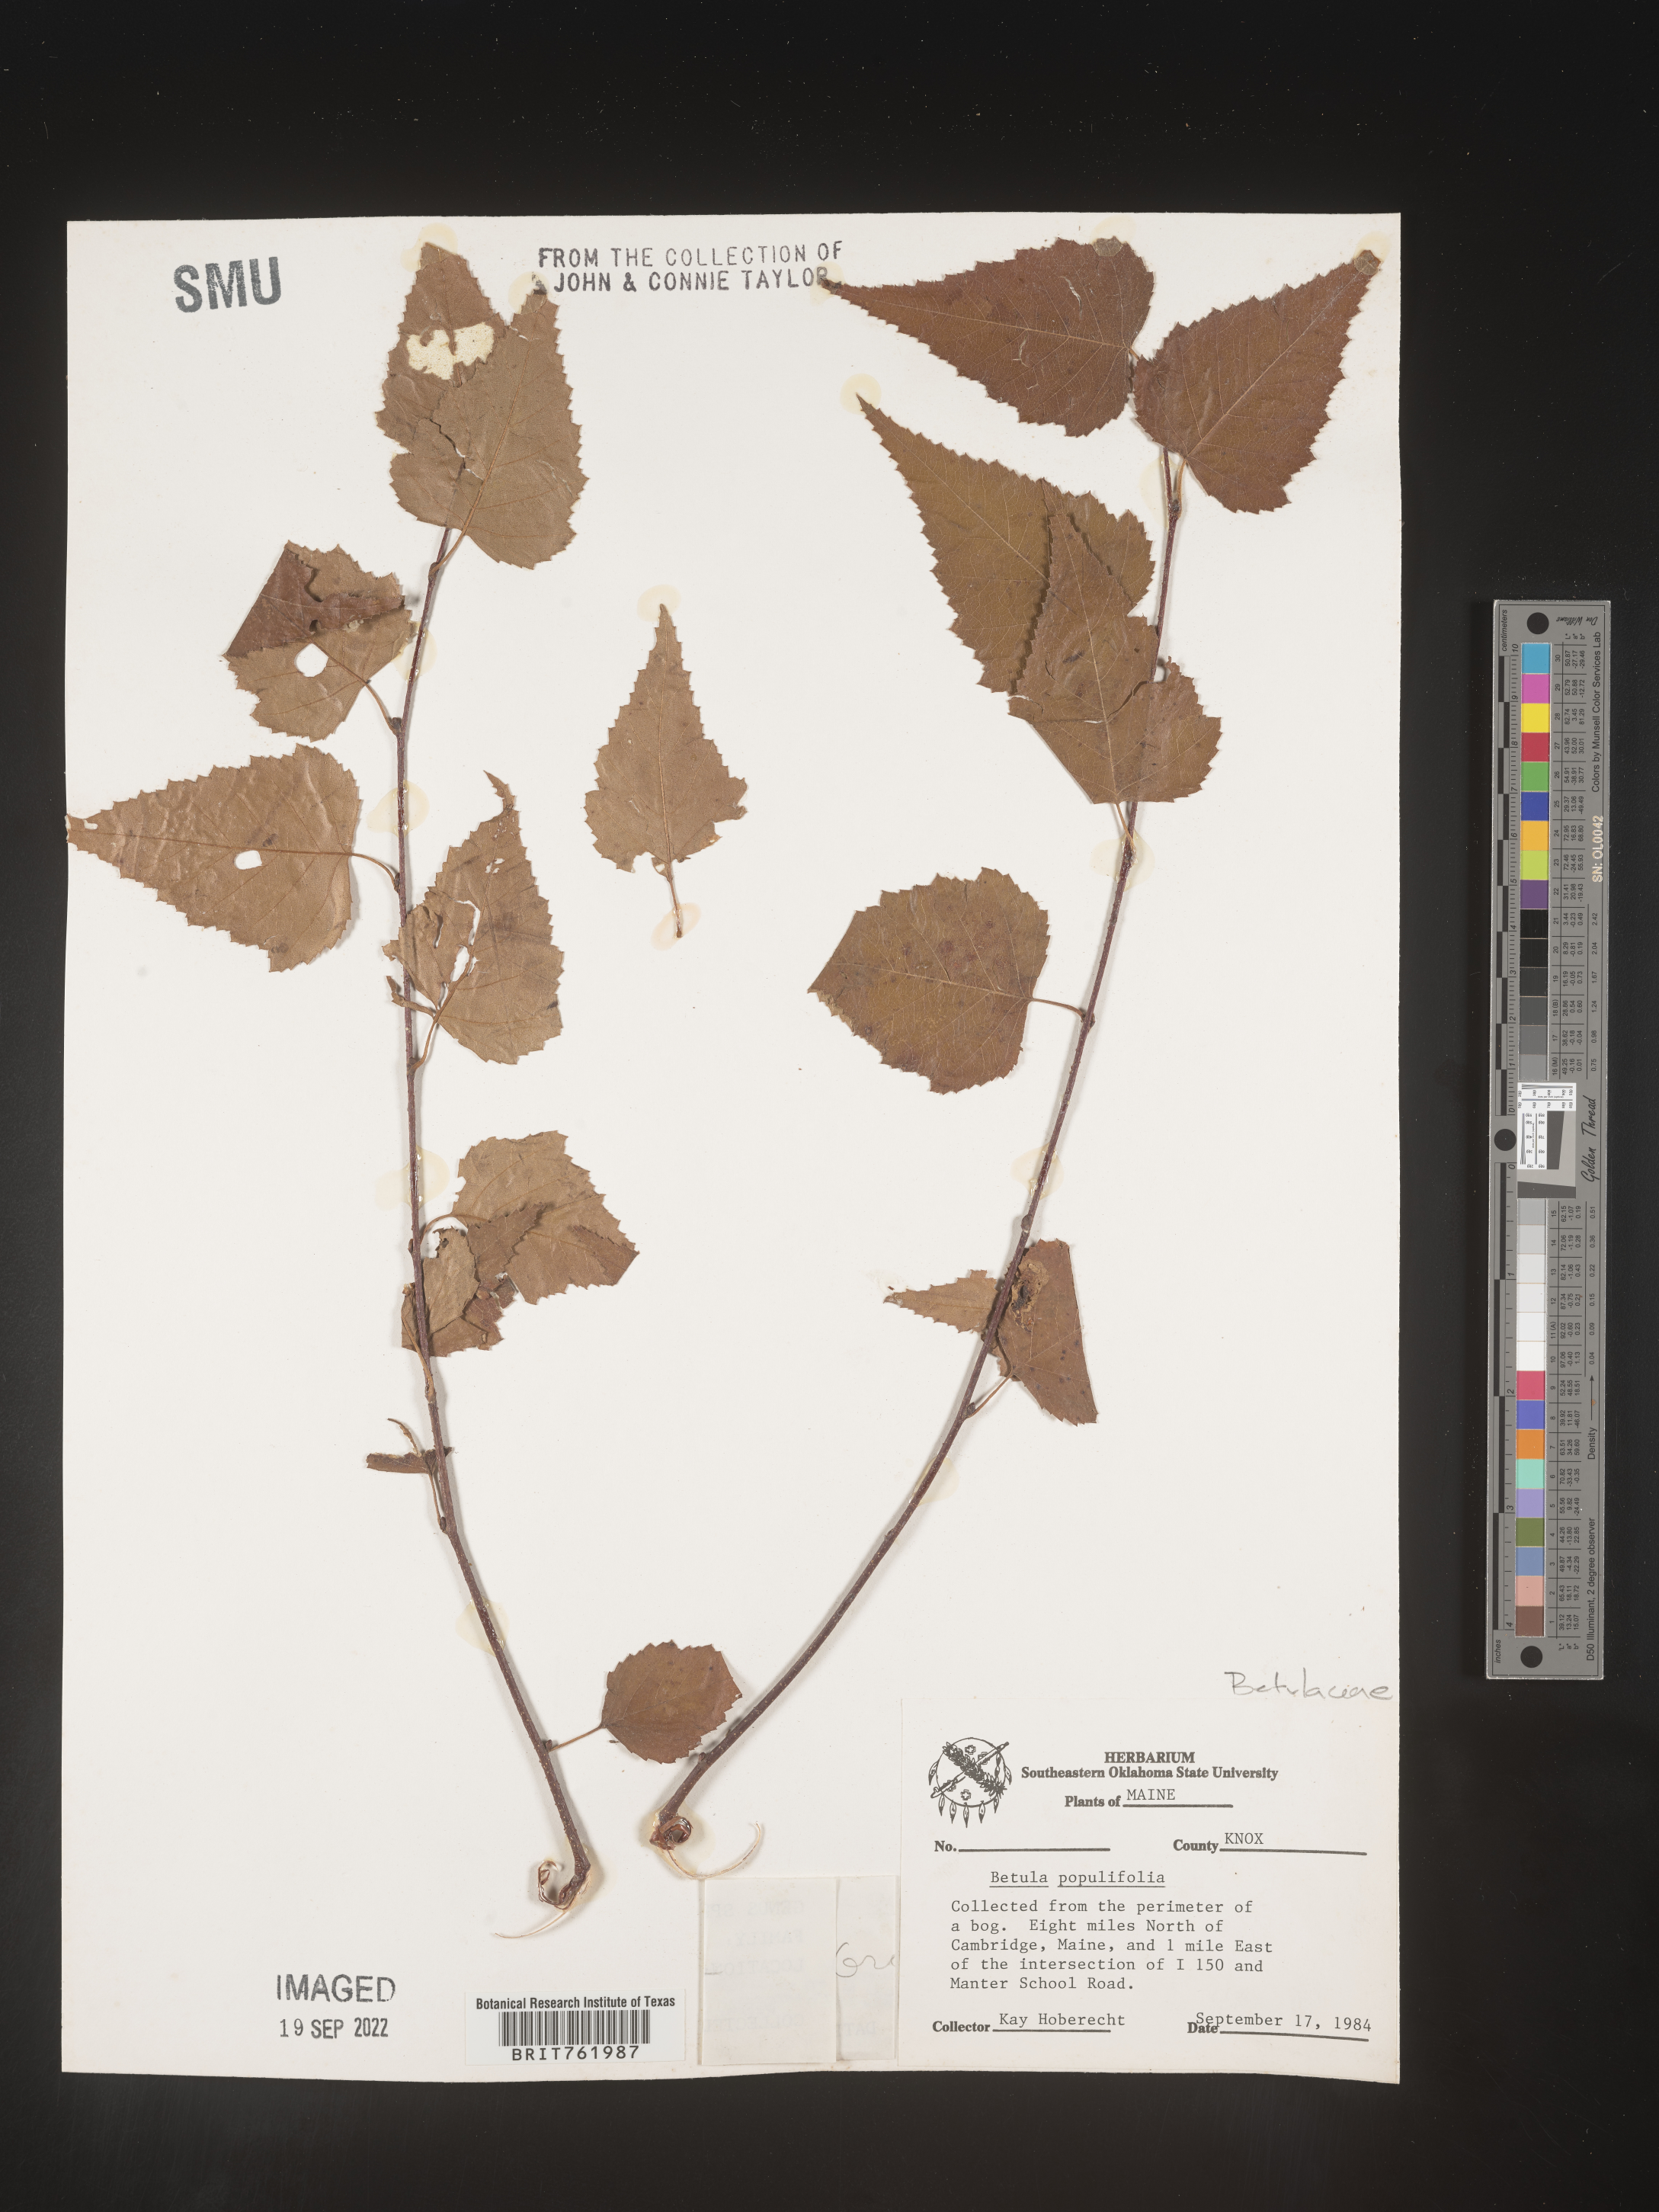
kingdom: Plantae
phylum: Tracheophyta
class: Magnoliopsida
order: Fagales
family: Betulaceae
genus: Betula
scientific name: Betula populifolia
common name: Fire birch
